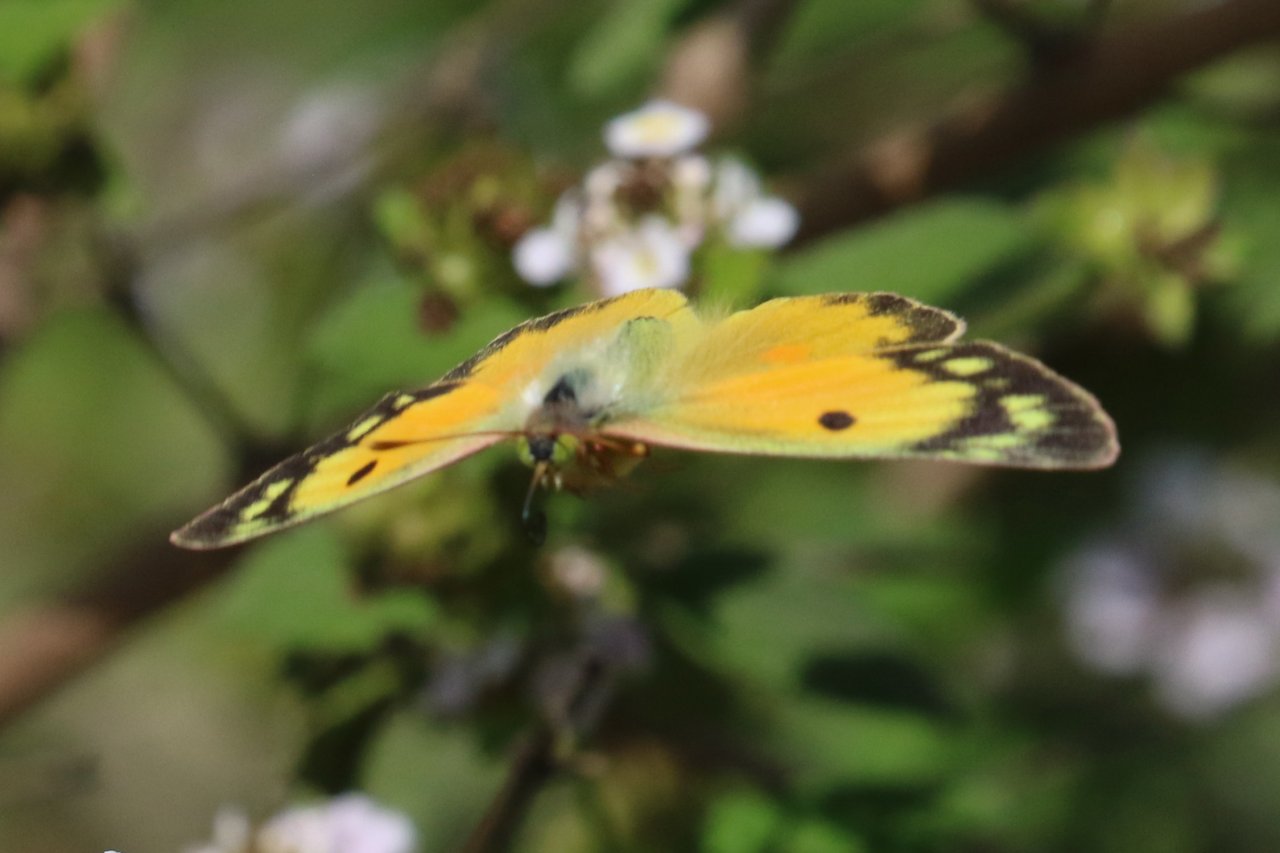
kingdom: Animalia
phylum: Arthropoda
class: Insecta
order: Lepidoptera
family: Pieridae
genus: Colias
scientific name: Colias eurytheme
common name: Orange Sulphur
